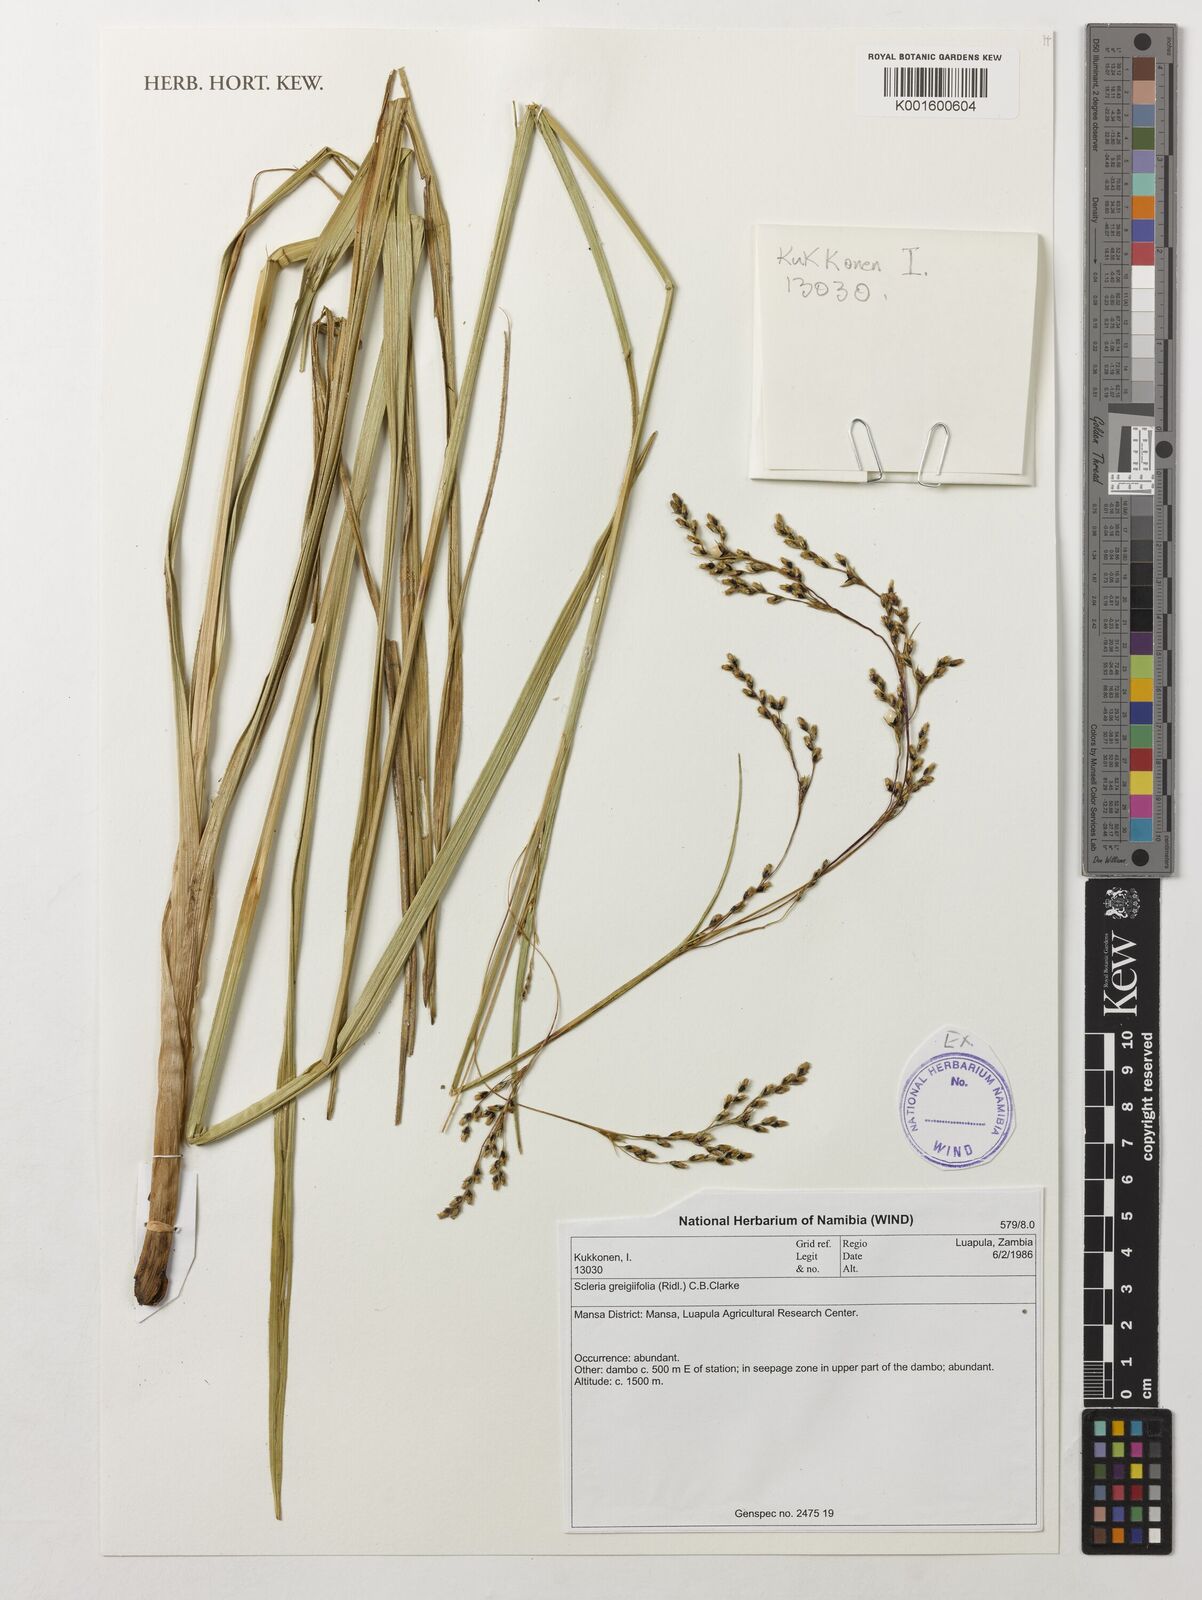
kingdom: Plantae
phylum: Tracheophyta
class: Liliopsida
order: Poales
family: Cyperaceae
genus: Scleria
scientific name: Scleria greigiifolia
